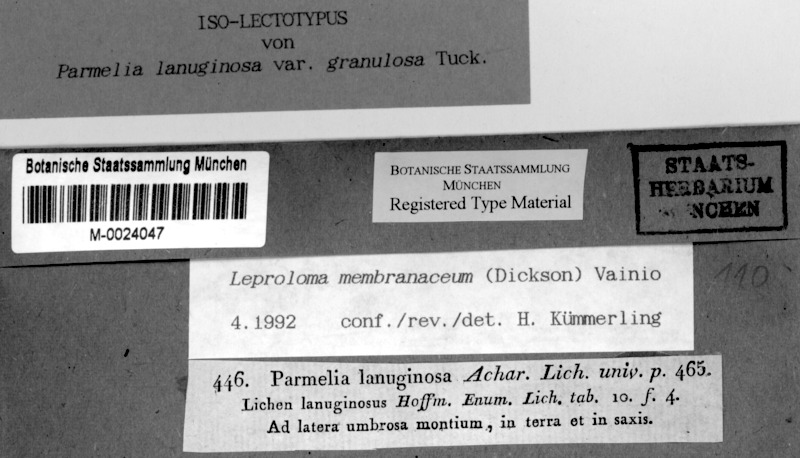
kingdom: Fungi
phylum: Ascomycota
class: Lecanoromycetes
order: Lecanorales
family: Stereocaulaceae
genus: Lepraria
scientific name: Lepraria membranacea
